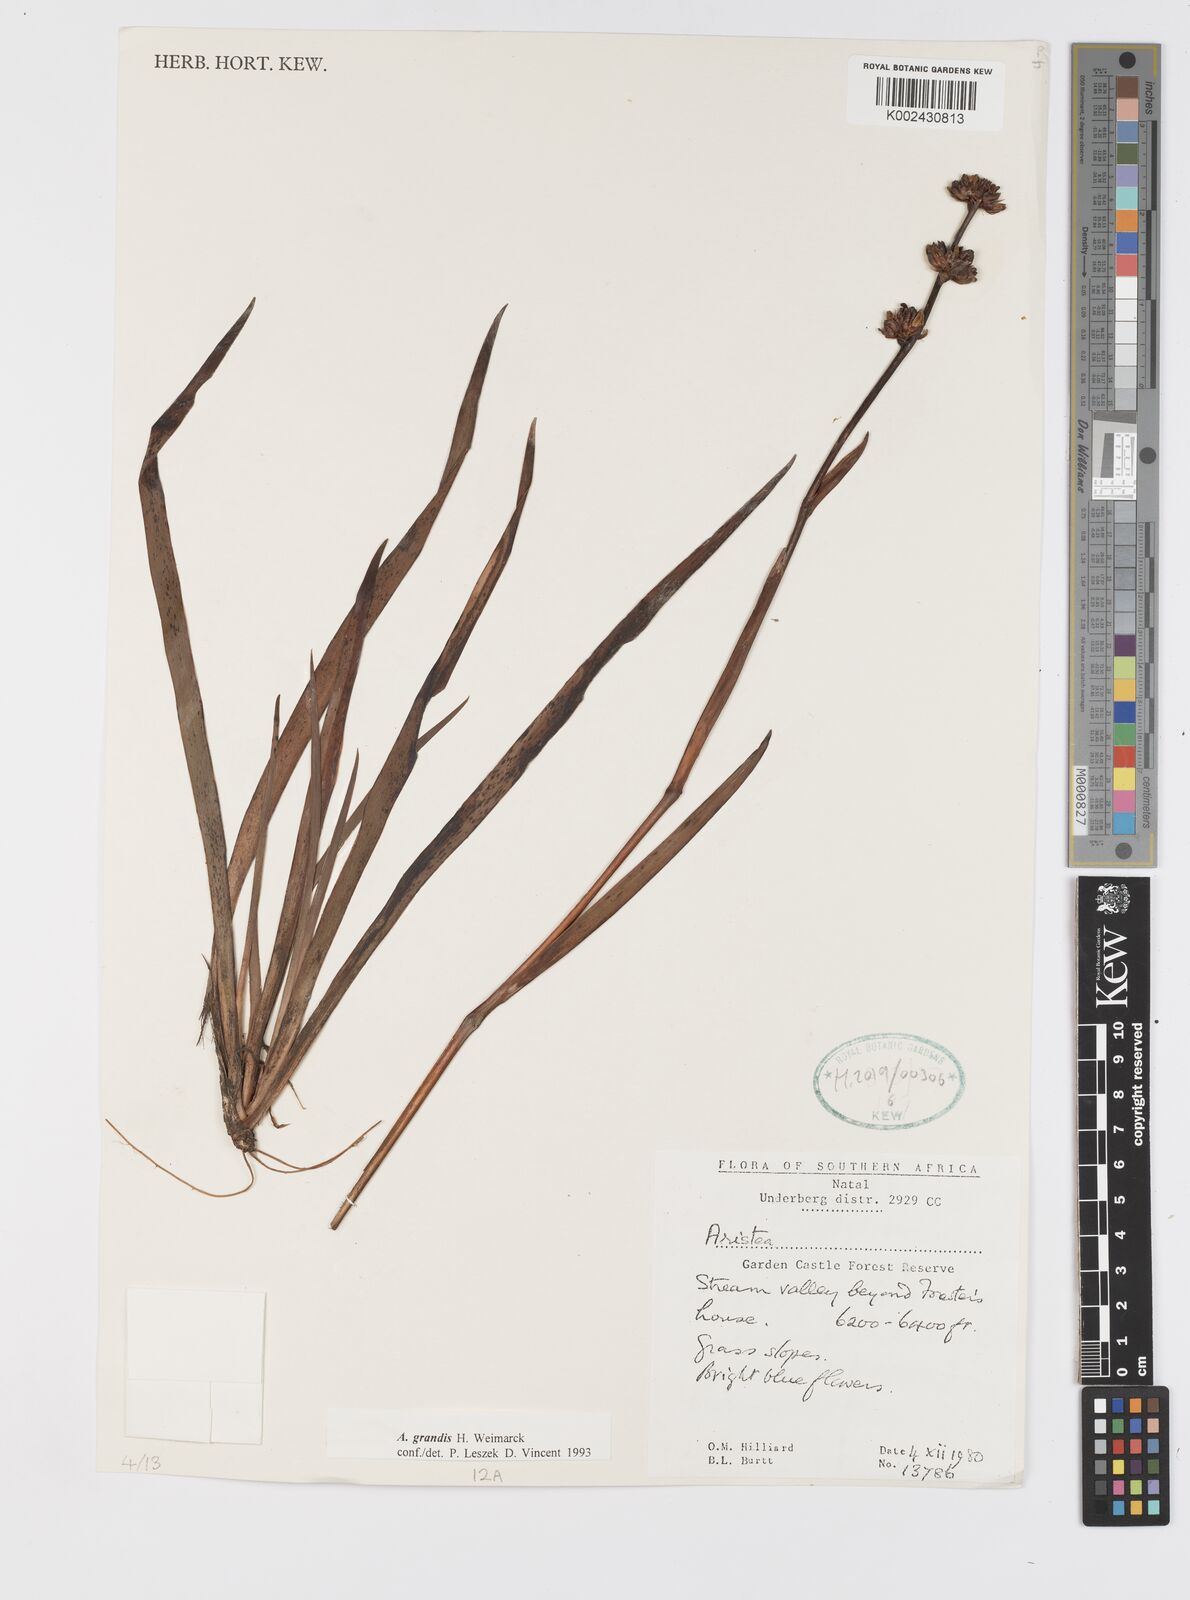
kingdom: Plantae
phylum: Tracheophyta
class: Liliopsida
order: Asparagales
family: Iridaceae
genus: Aristea
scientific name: Aristea grandis
